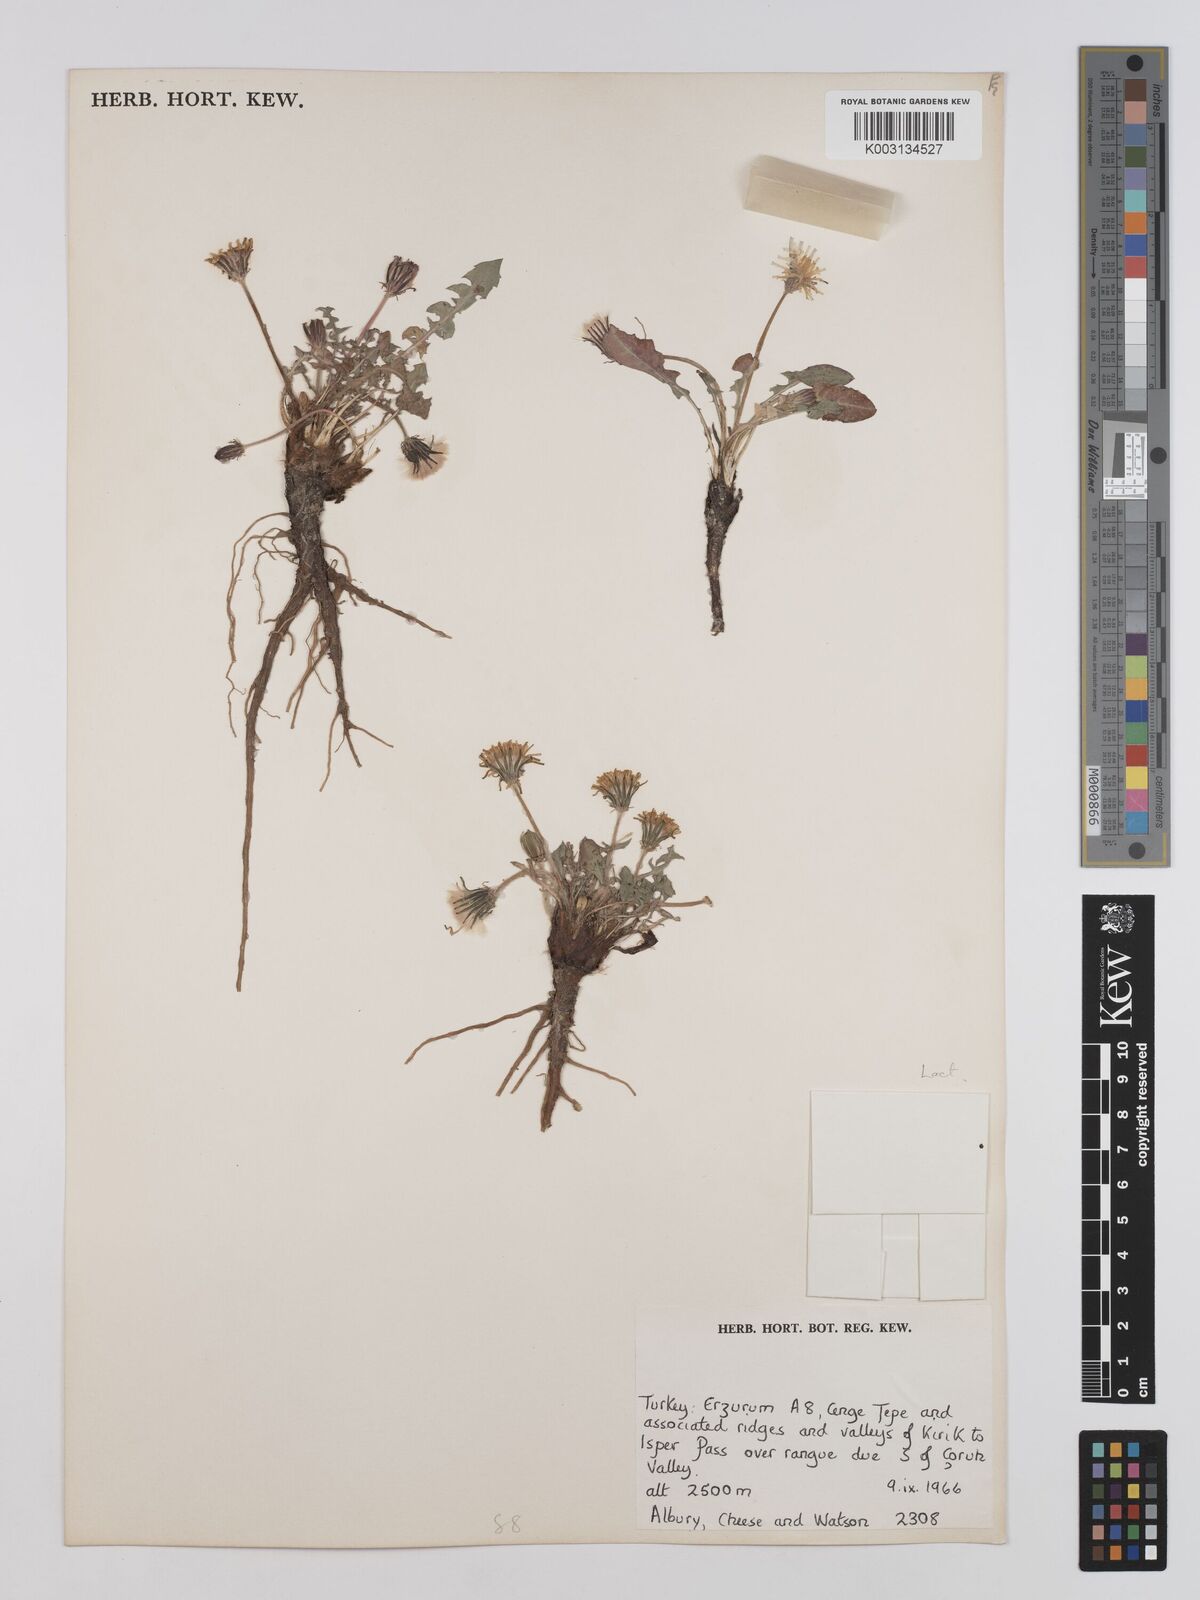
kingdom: Plantae
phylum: Tracheophyta
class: Magnoliopsida
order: Asterales
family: Asteraceae
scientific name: Asteraceae
